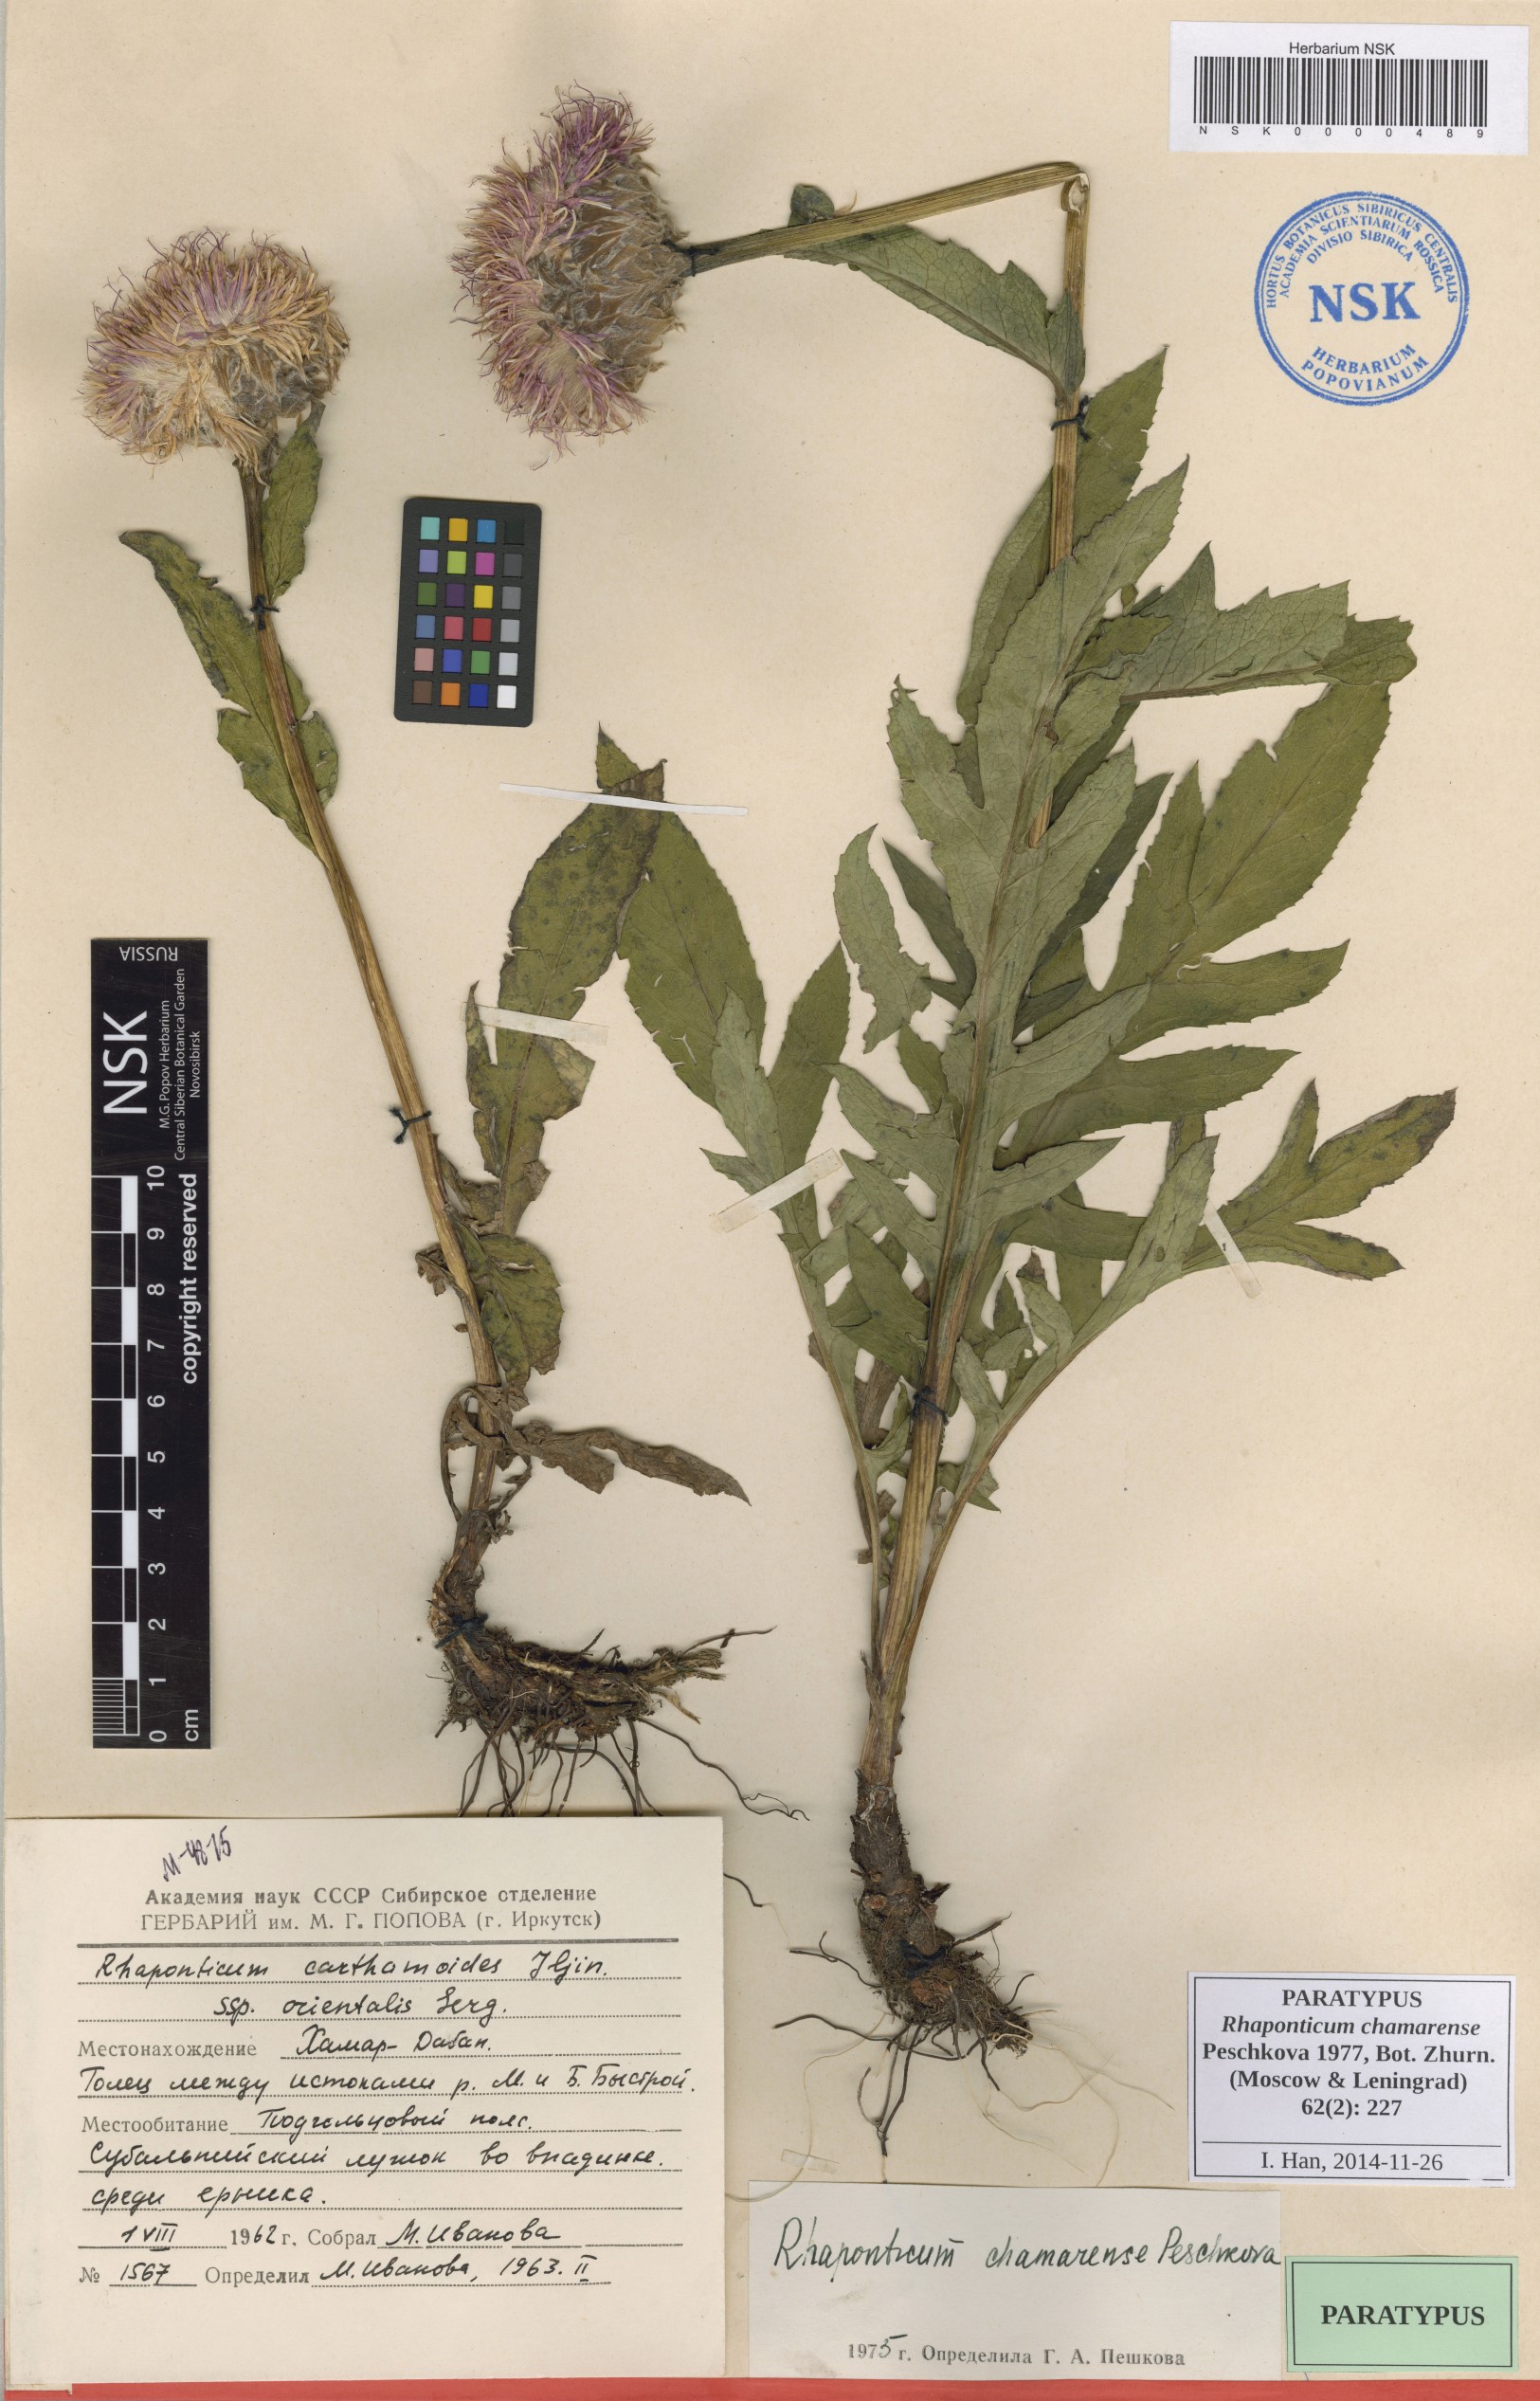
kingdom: Plantae
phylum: Tracheophyta
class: Magnoliopsida
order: Asterales
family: Asteraceae
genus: Leuzea
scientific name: Leuzea carthamoides
